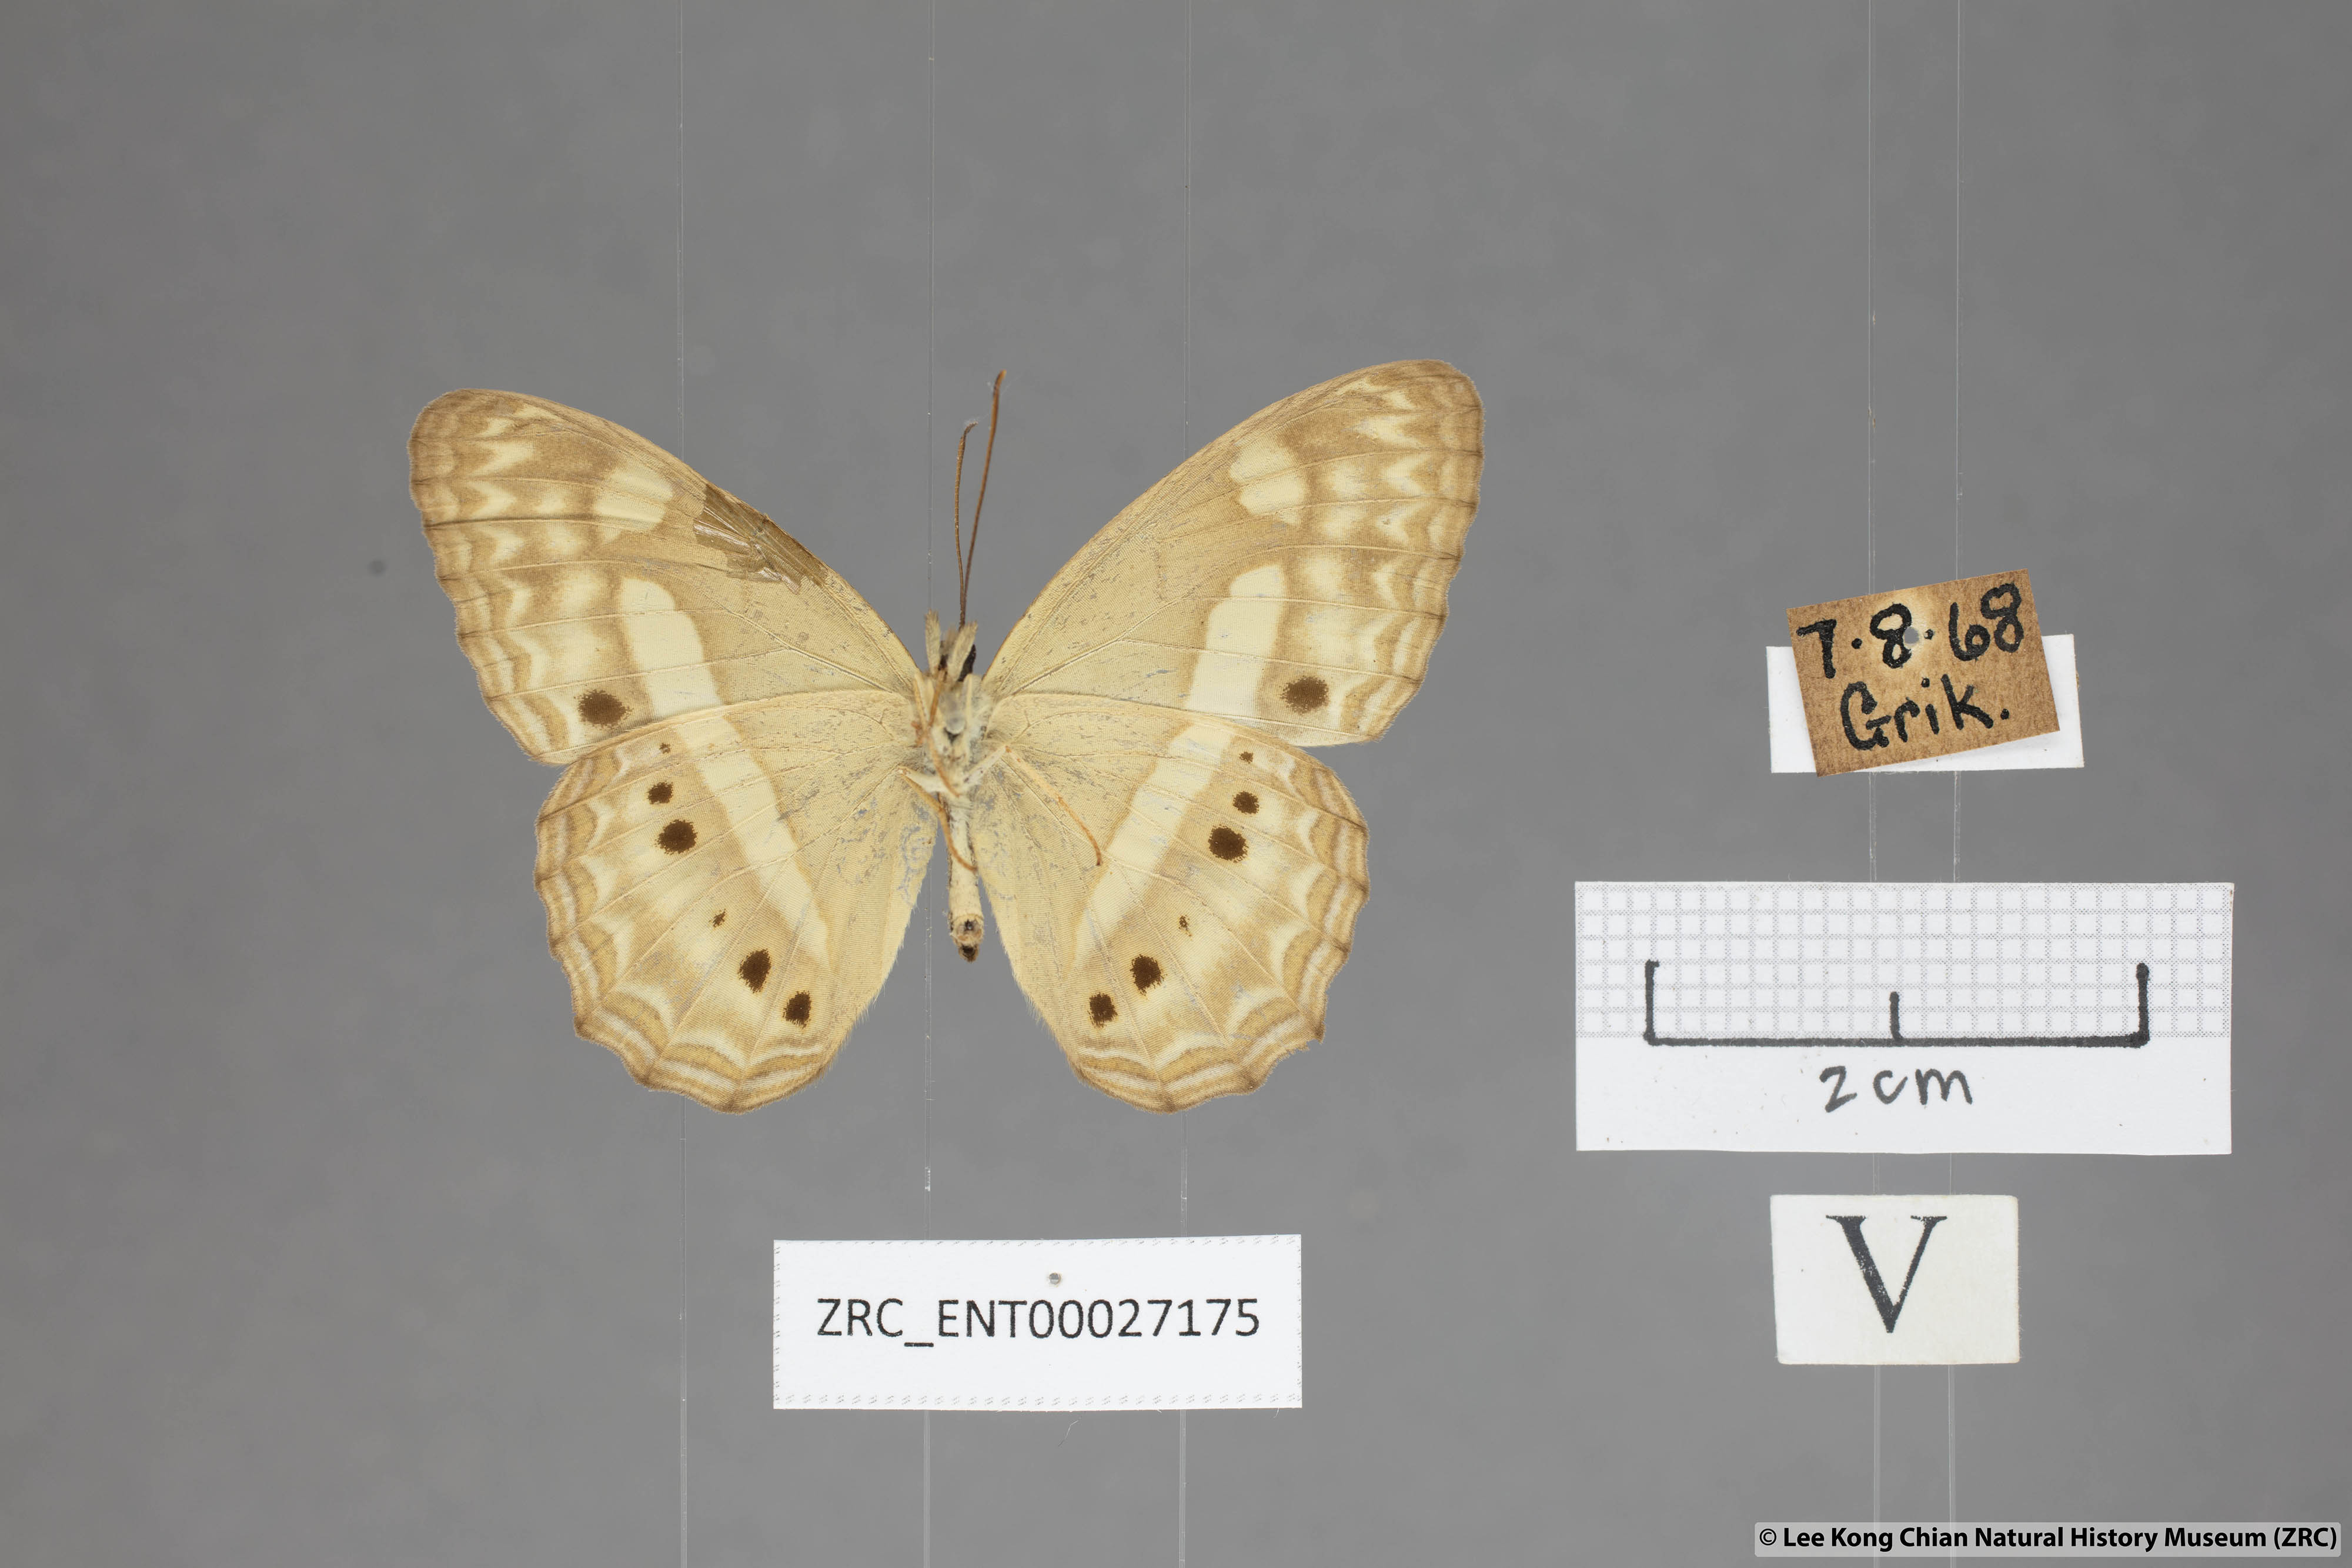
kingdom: Animalia
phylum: Arthropoda
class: Insecta
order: Lepidoptera
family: Nymphalidae
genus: Cirrochroa
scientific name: Cirrochroa fasciata
